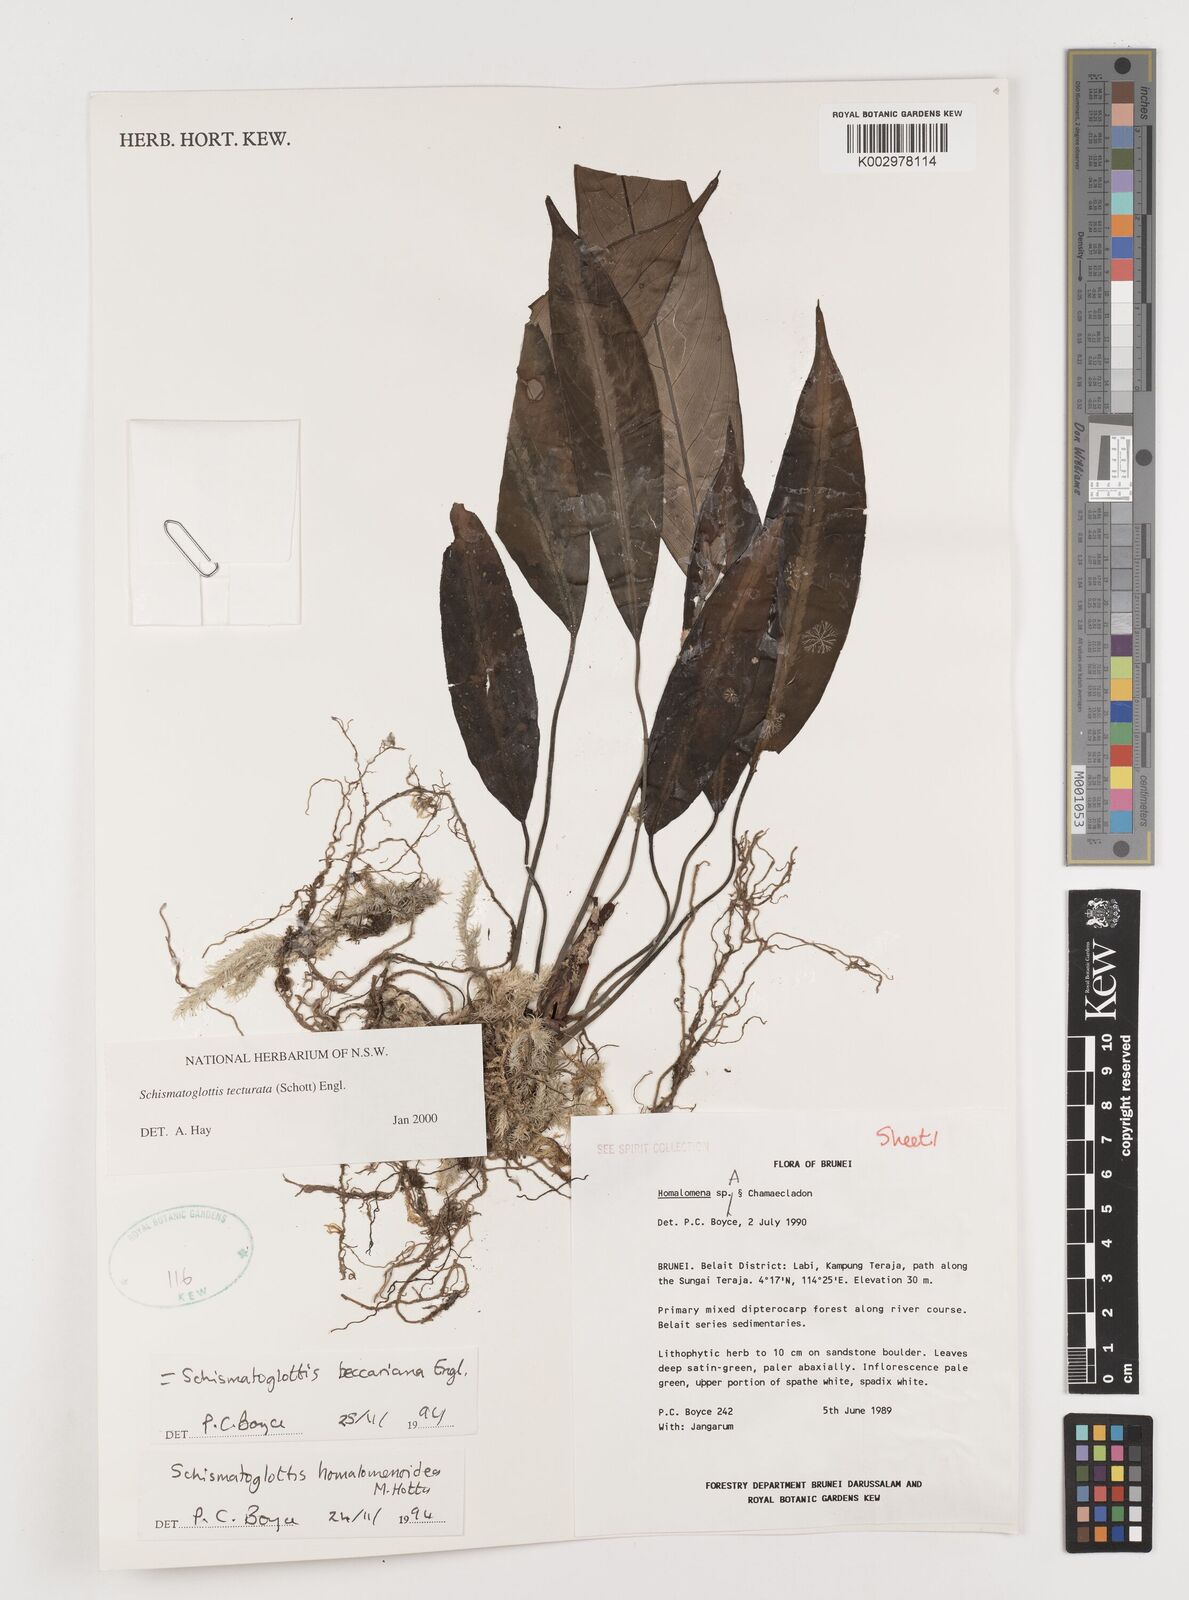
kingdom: Plantae
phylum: Tracheophyta
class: Liliopsida
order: Zingiberales
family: Costaceae
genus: Colobogynium
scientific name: Colobogynium variegatum
